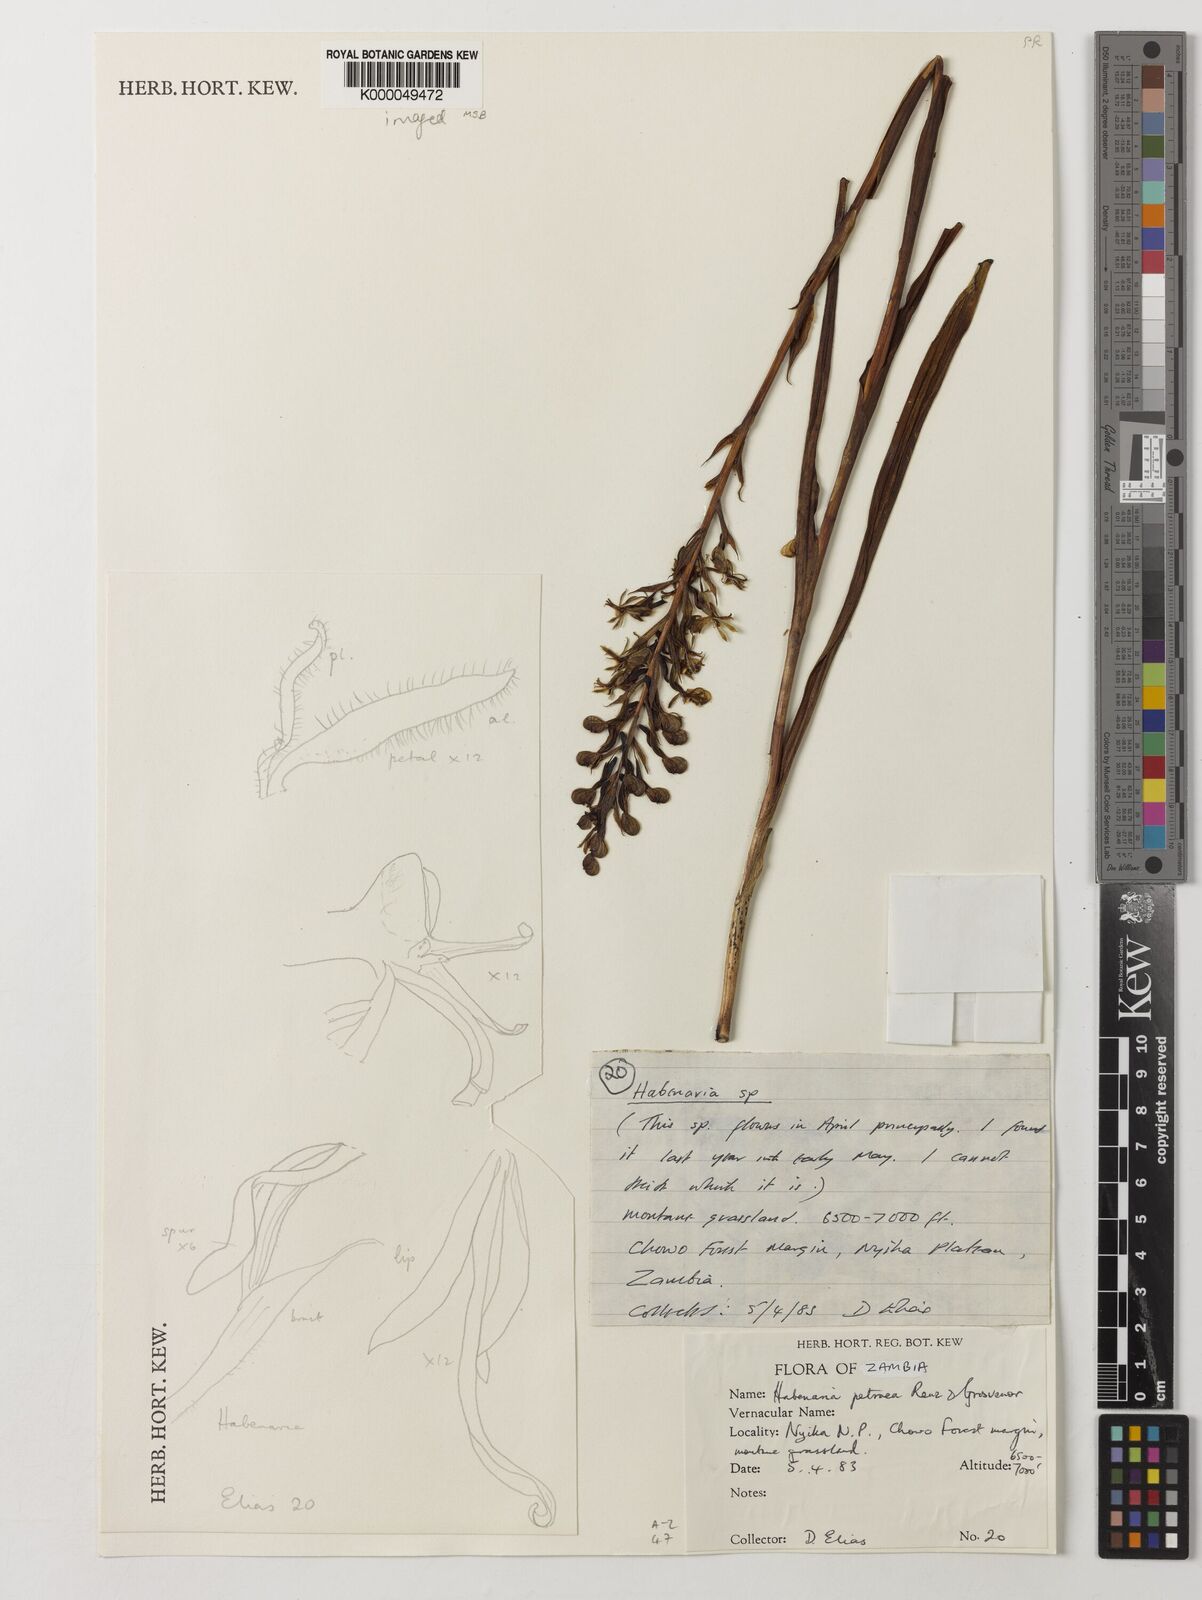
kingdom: Plantae
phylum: Tracheophyta
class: Liliopsida
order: Asparagales
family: Orchidaceae
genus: Habenaria
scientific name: Habenaria petraea
